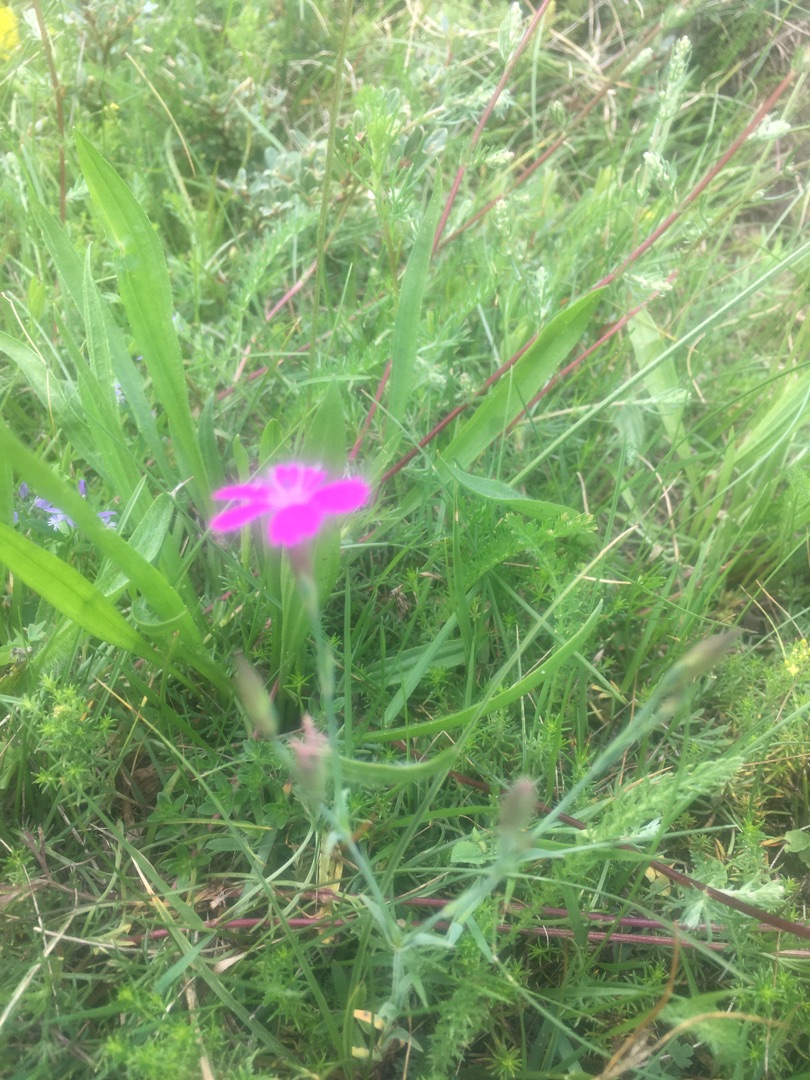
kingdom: Plantae
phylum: Tracheophyta
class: Magnoliopsida
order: Caryophyllales
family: Caryophyllaceae
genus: Dianthus
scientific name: Dianthus deltoides
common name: Bakke-nellike
